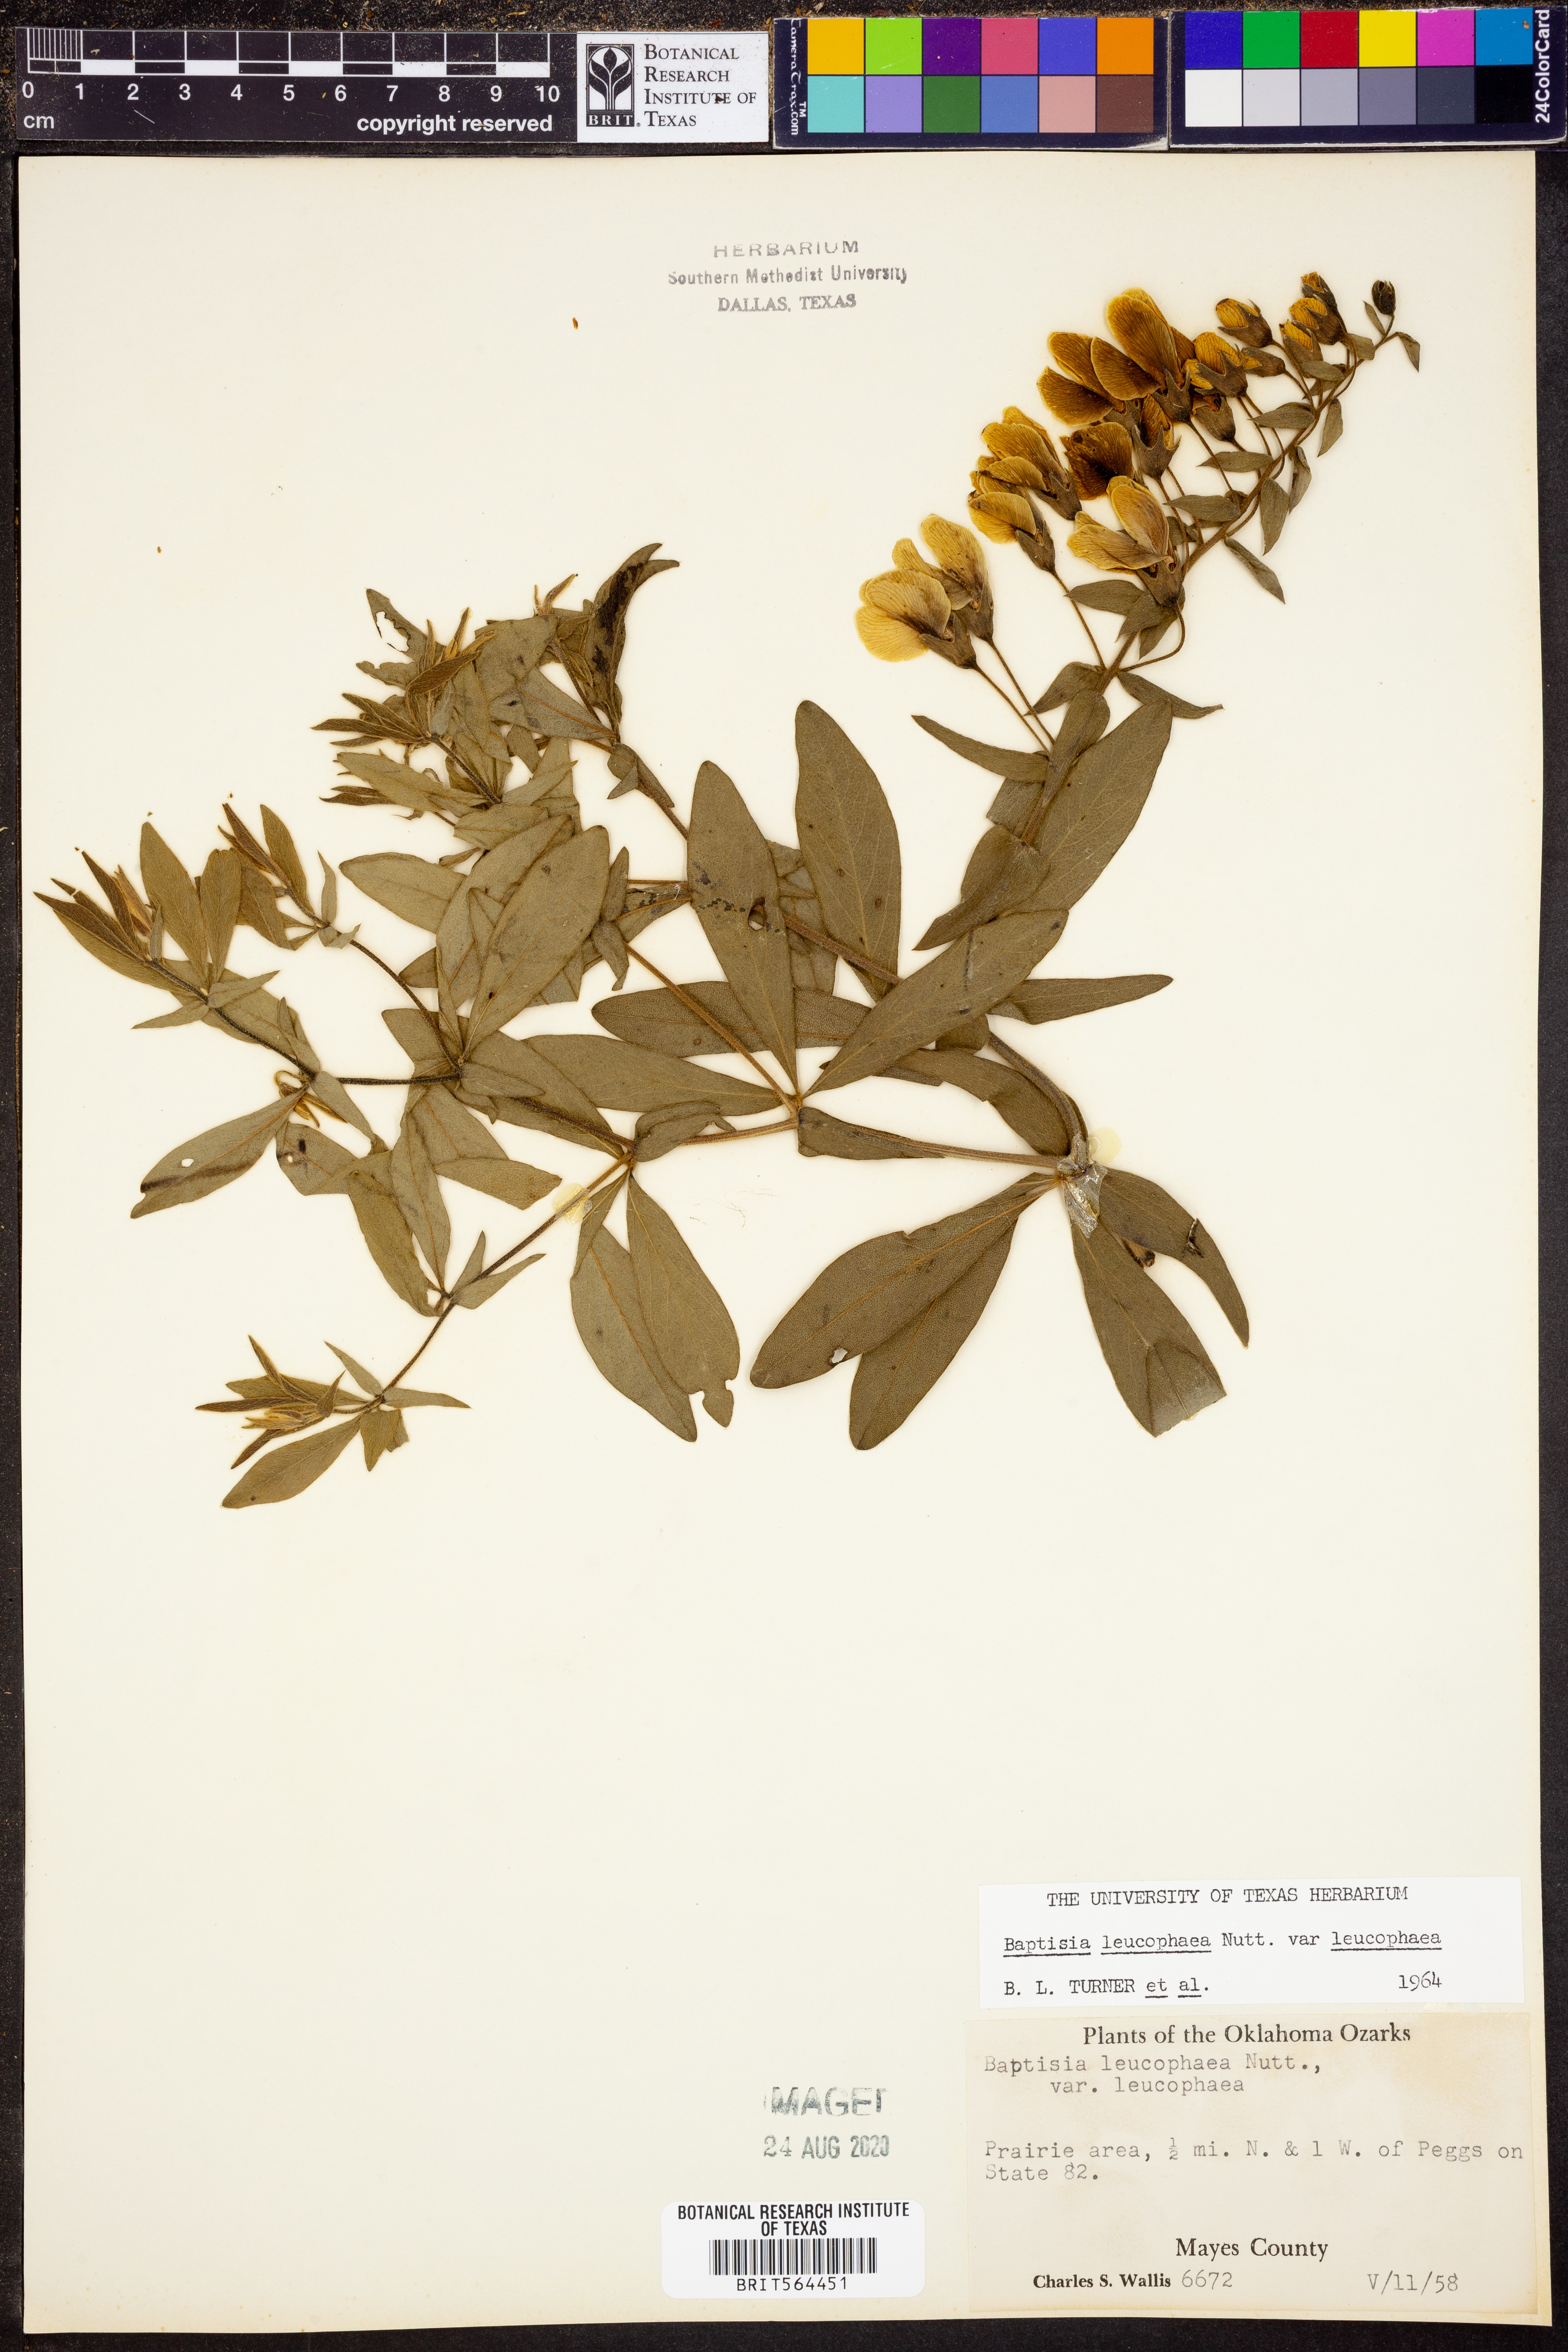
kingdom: Plantae
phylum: Tracheophyta
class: Magnoliopsida
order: Fabales
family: Fabaceae
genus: Baptisia
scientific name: Baptisia bracteata
